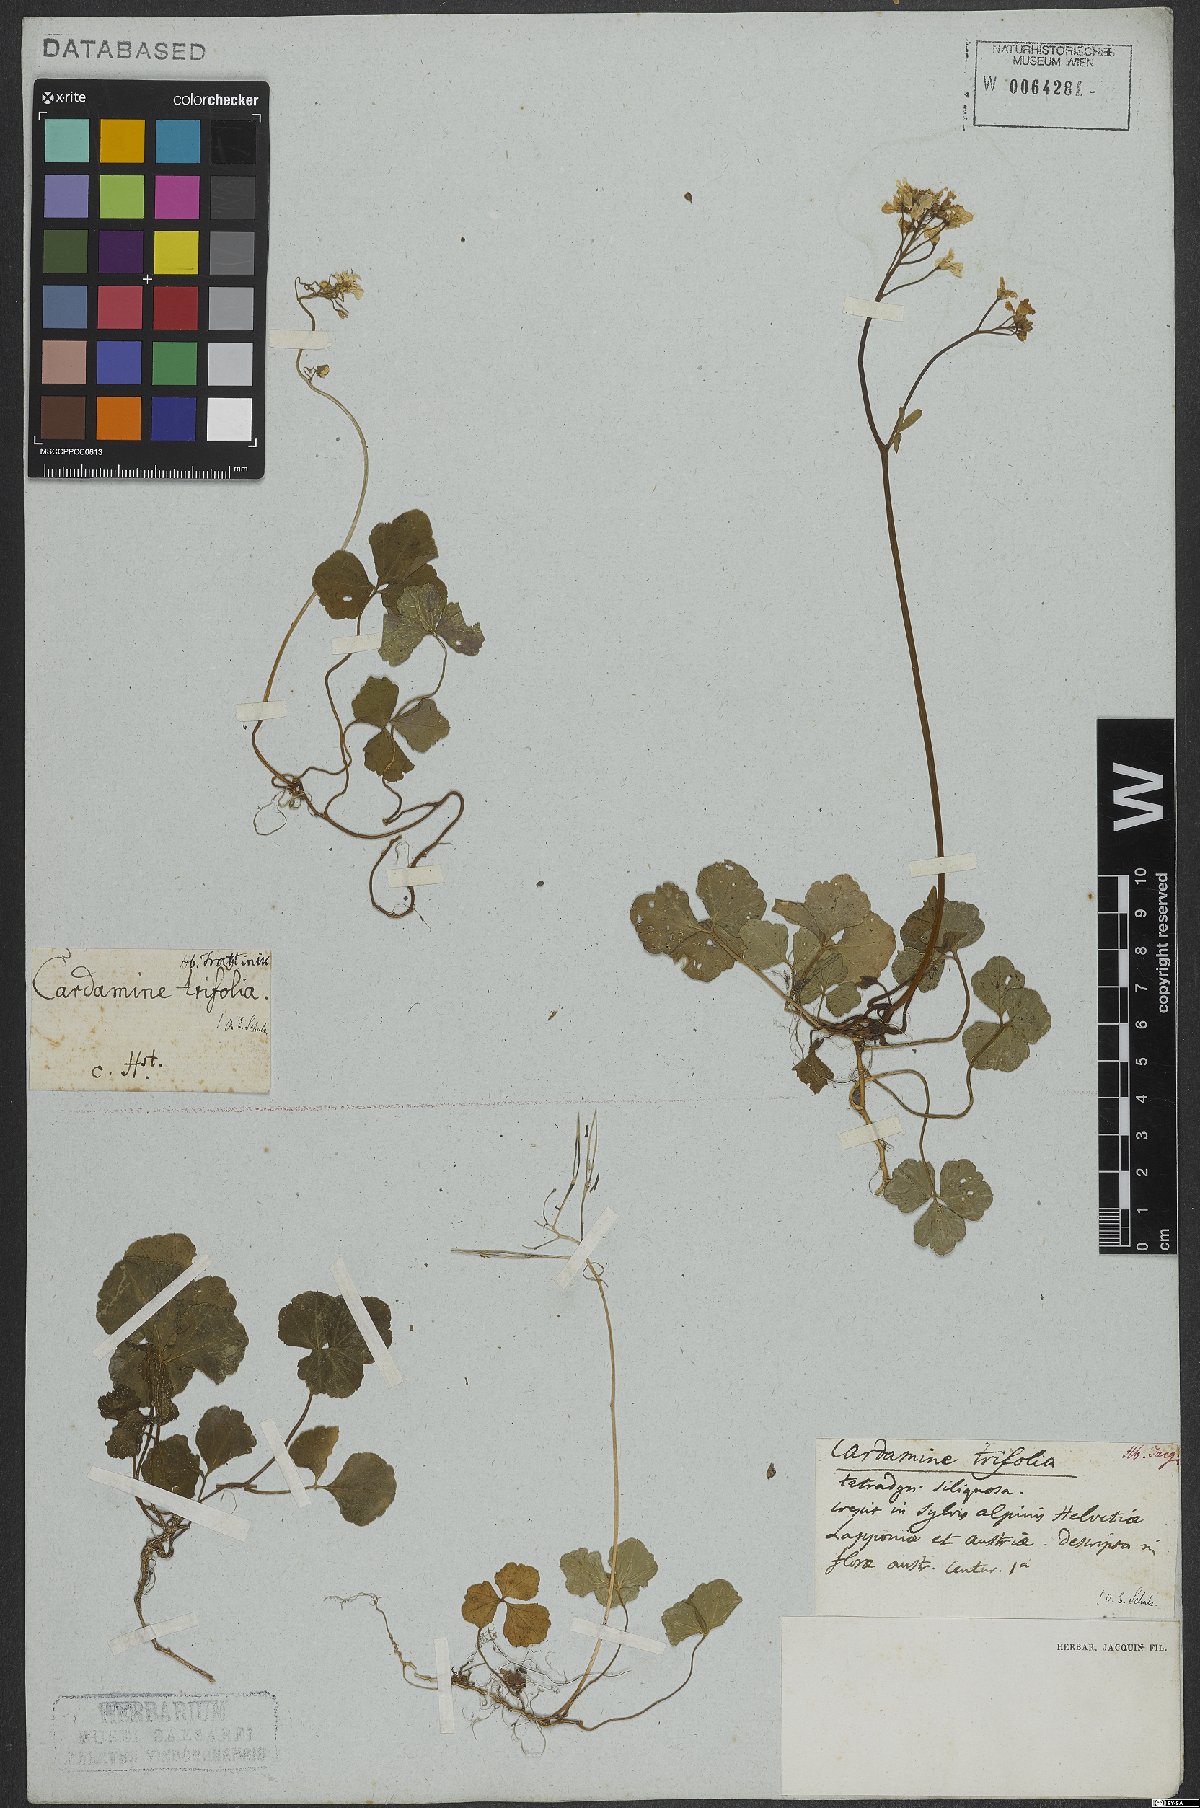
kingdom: Plantae
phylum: Tracheophyta
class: Magnoliopsida
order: Brassicales
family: Brassicaceae
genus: Cardamine
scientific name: Cardamine trifolia
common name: Trefoil cress
